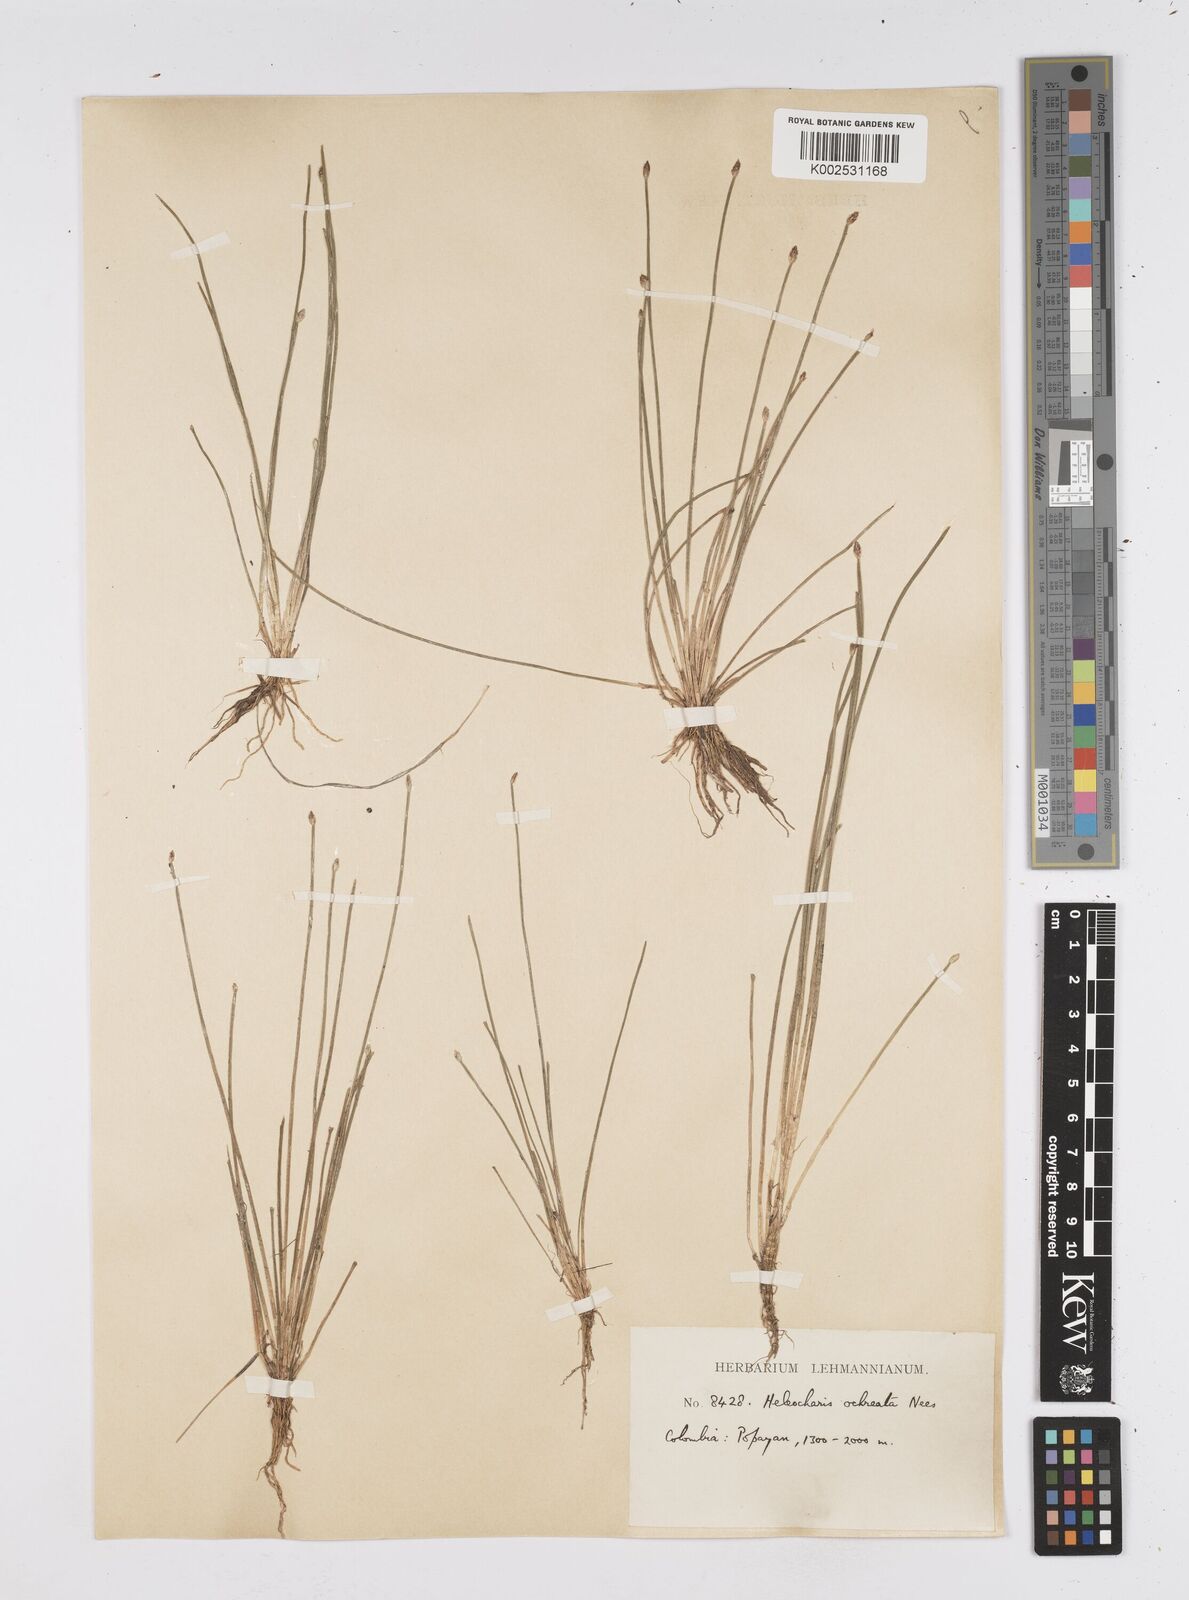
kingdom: Plantae
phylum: Tracheophyta
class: Liliopsida
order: Poales
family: Cyperaceae
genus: Eleocharis
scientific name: Eleocharis flavescens
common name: Yellow spikerush
